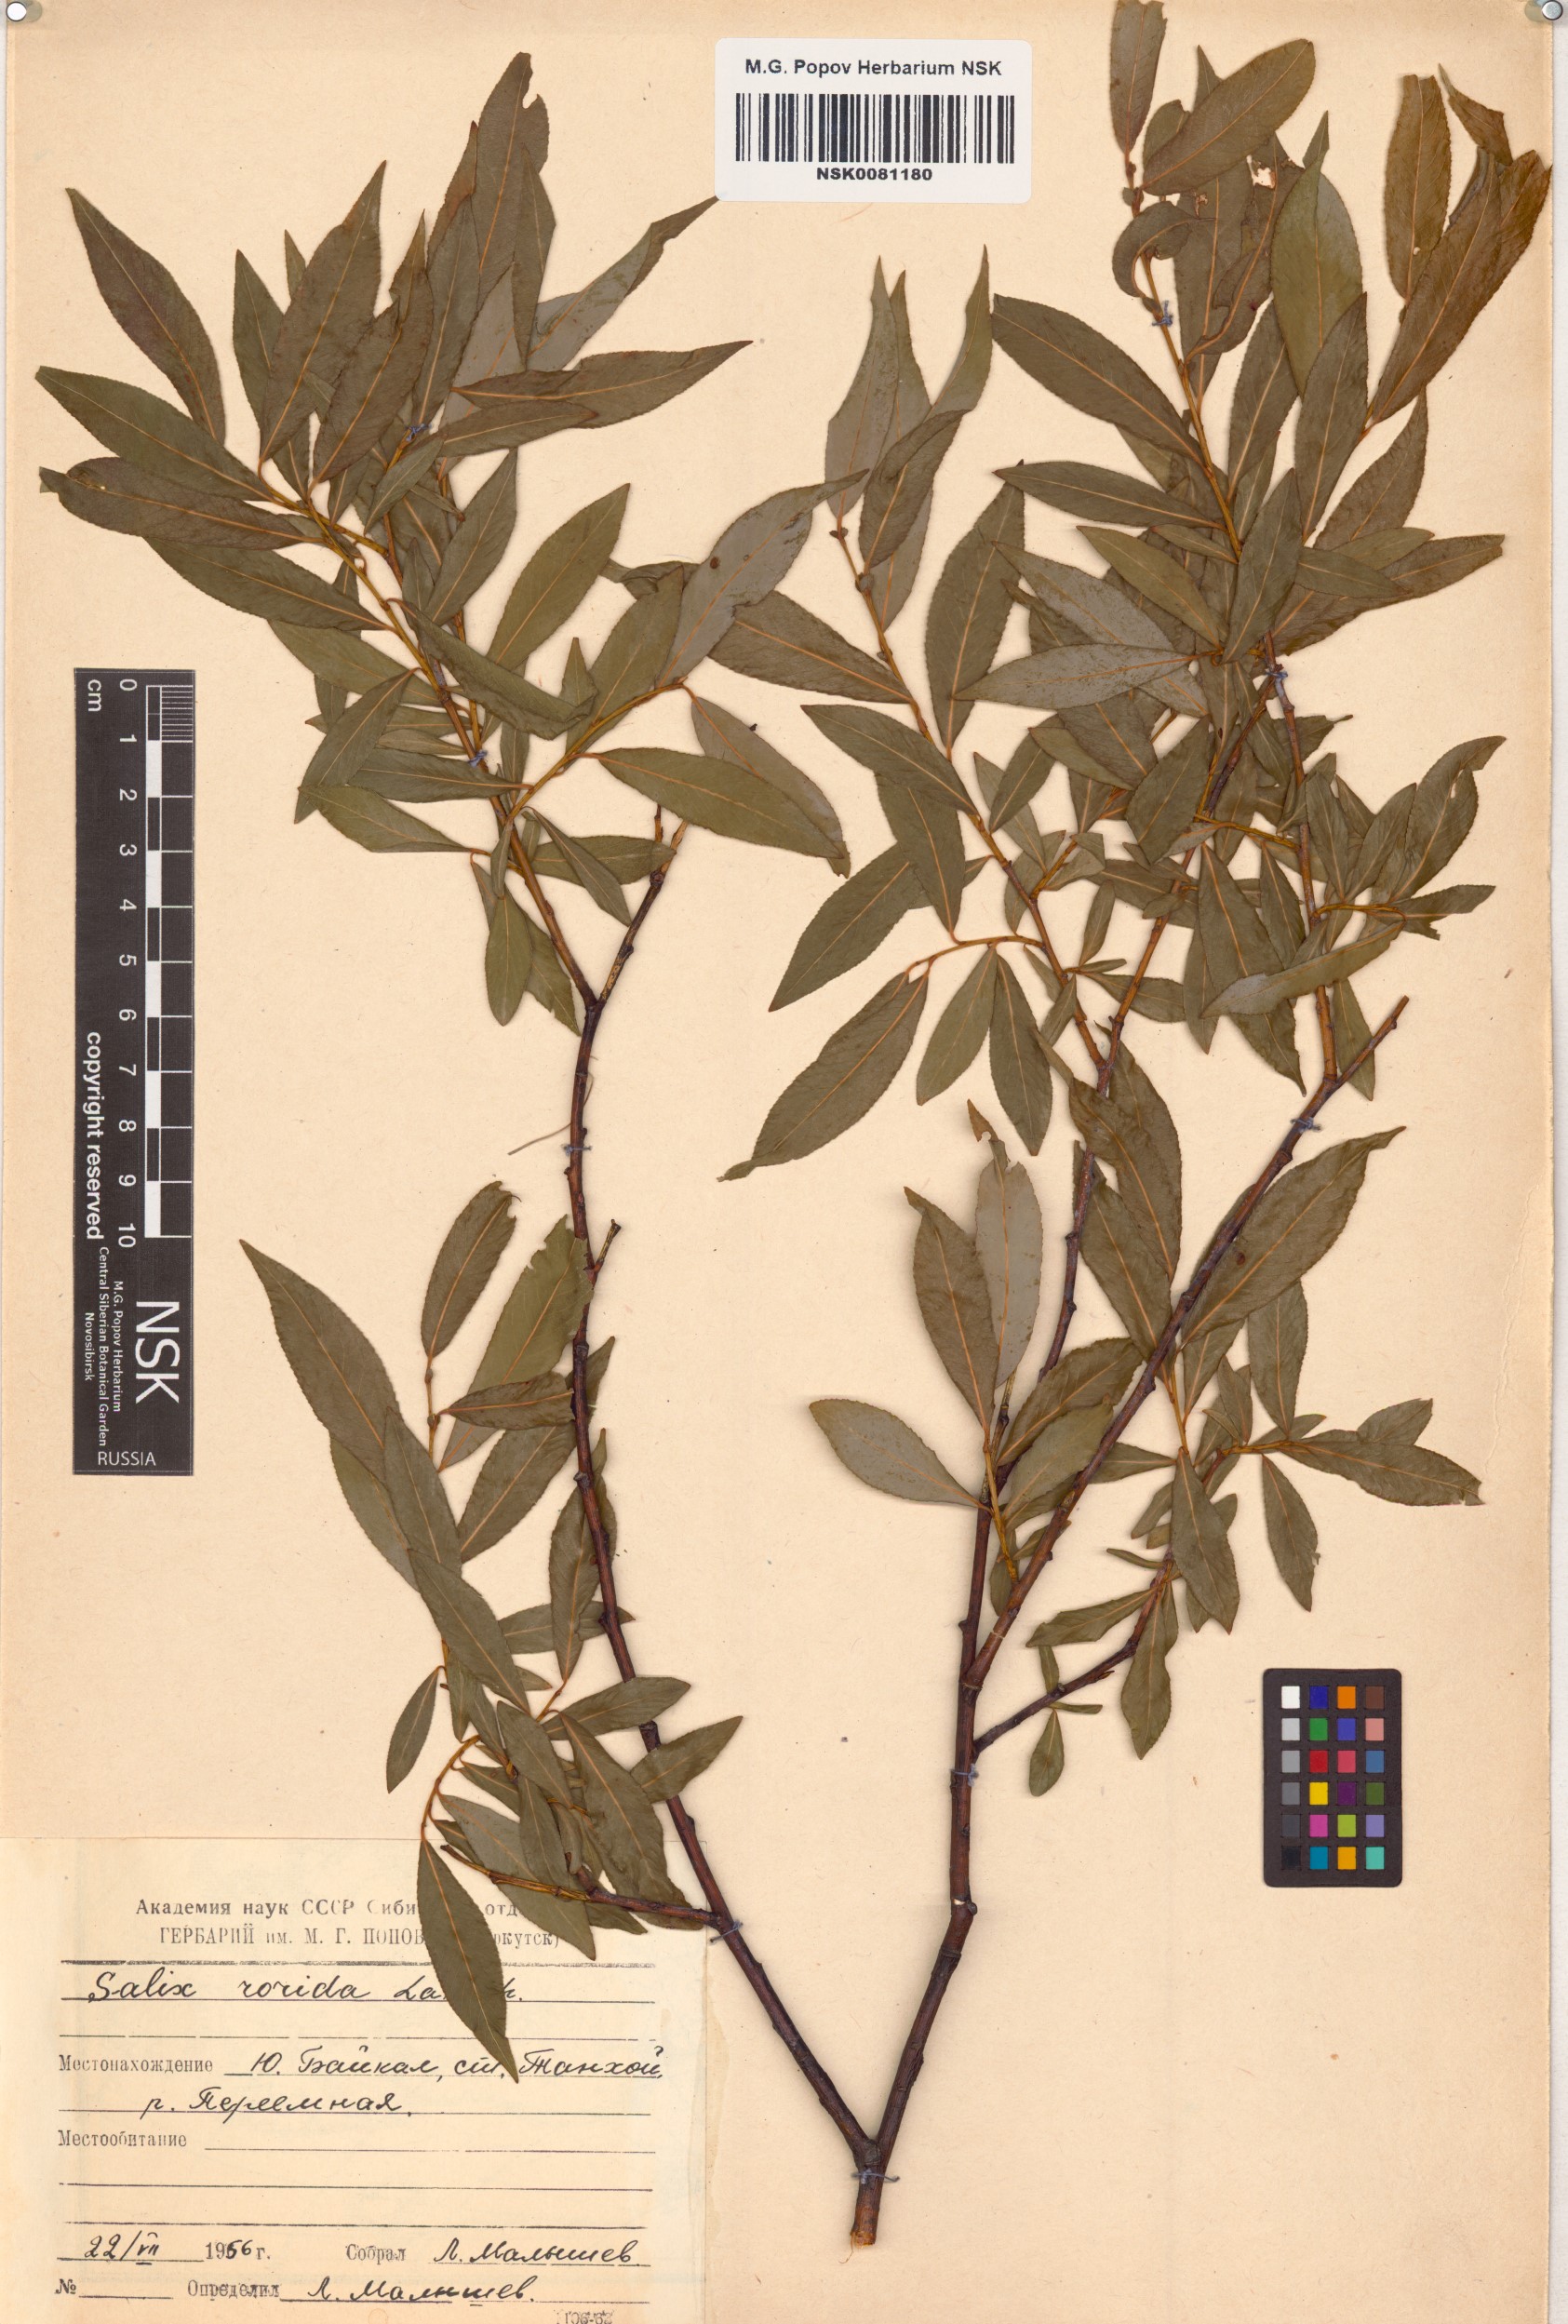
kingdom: Plantae
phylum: Tracheophyta
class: Magnoliopsida
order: Malpighiales
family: Salicaceae
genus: Salix
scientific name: Salix rorida
